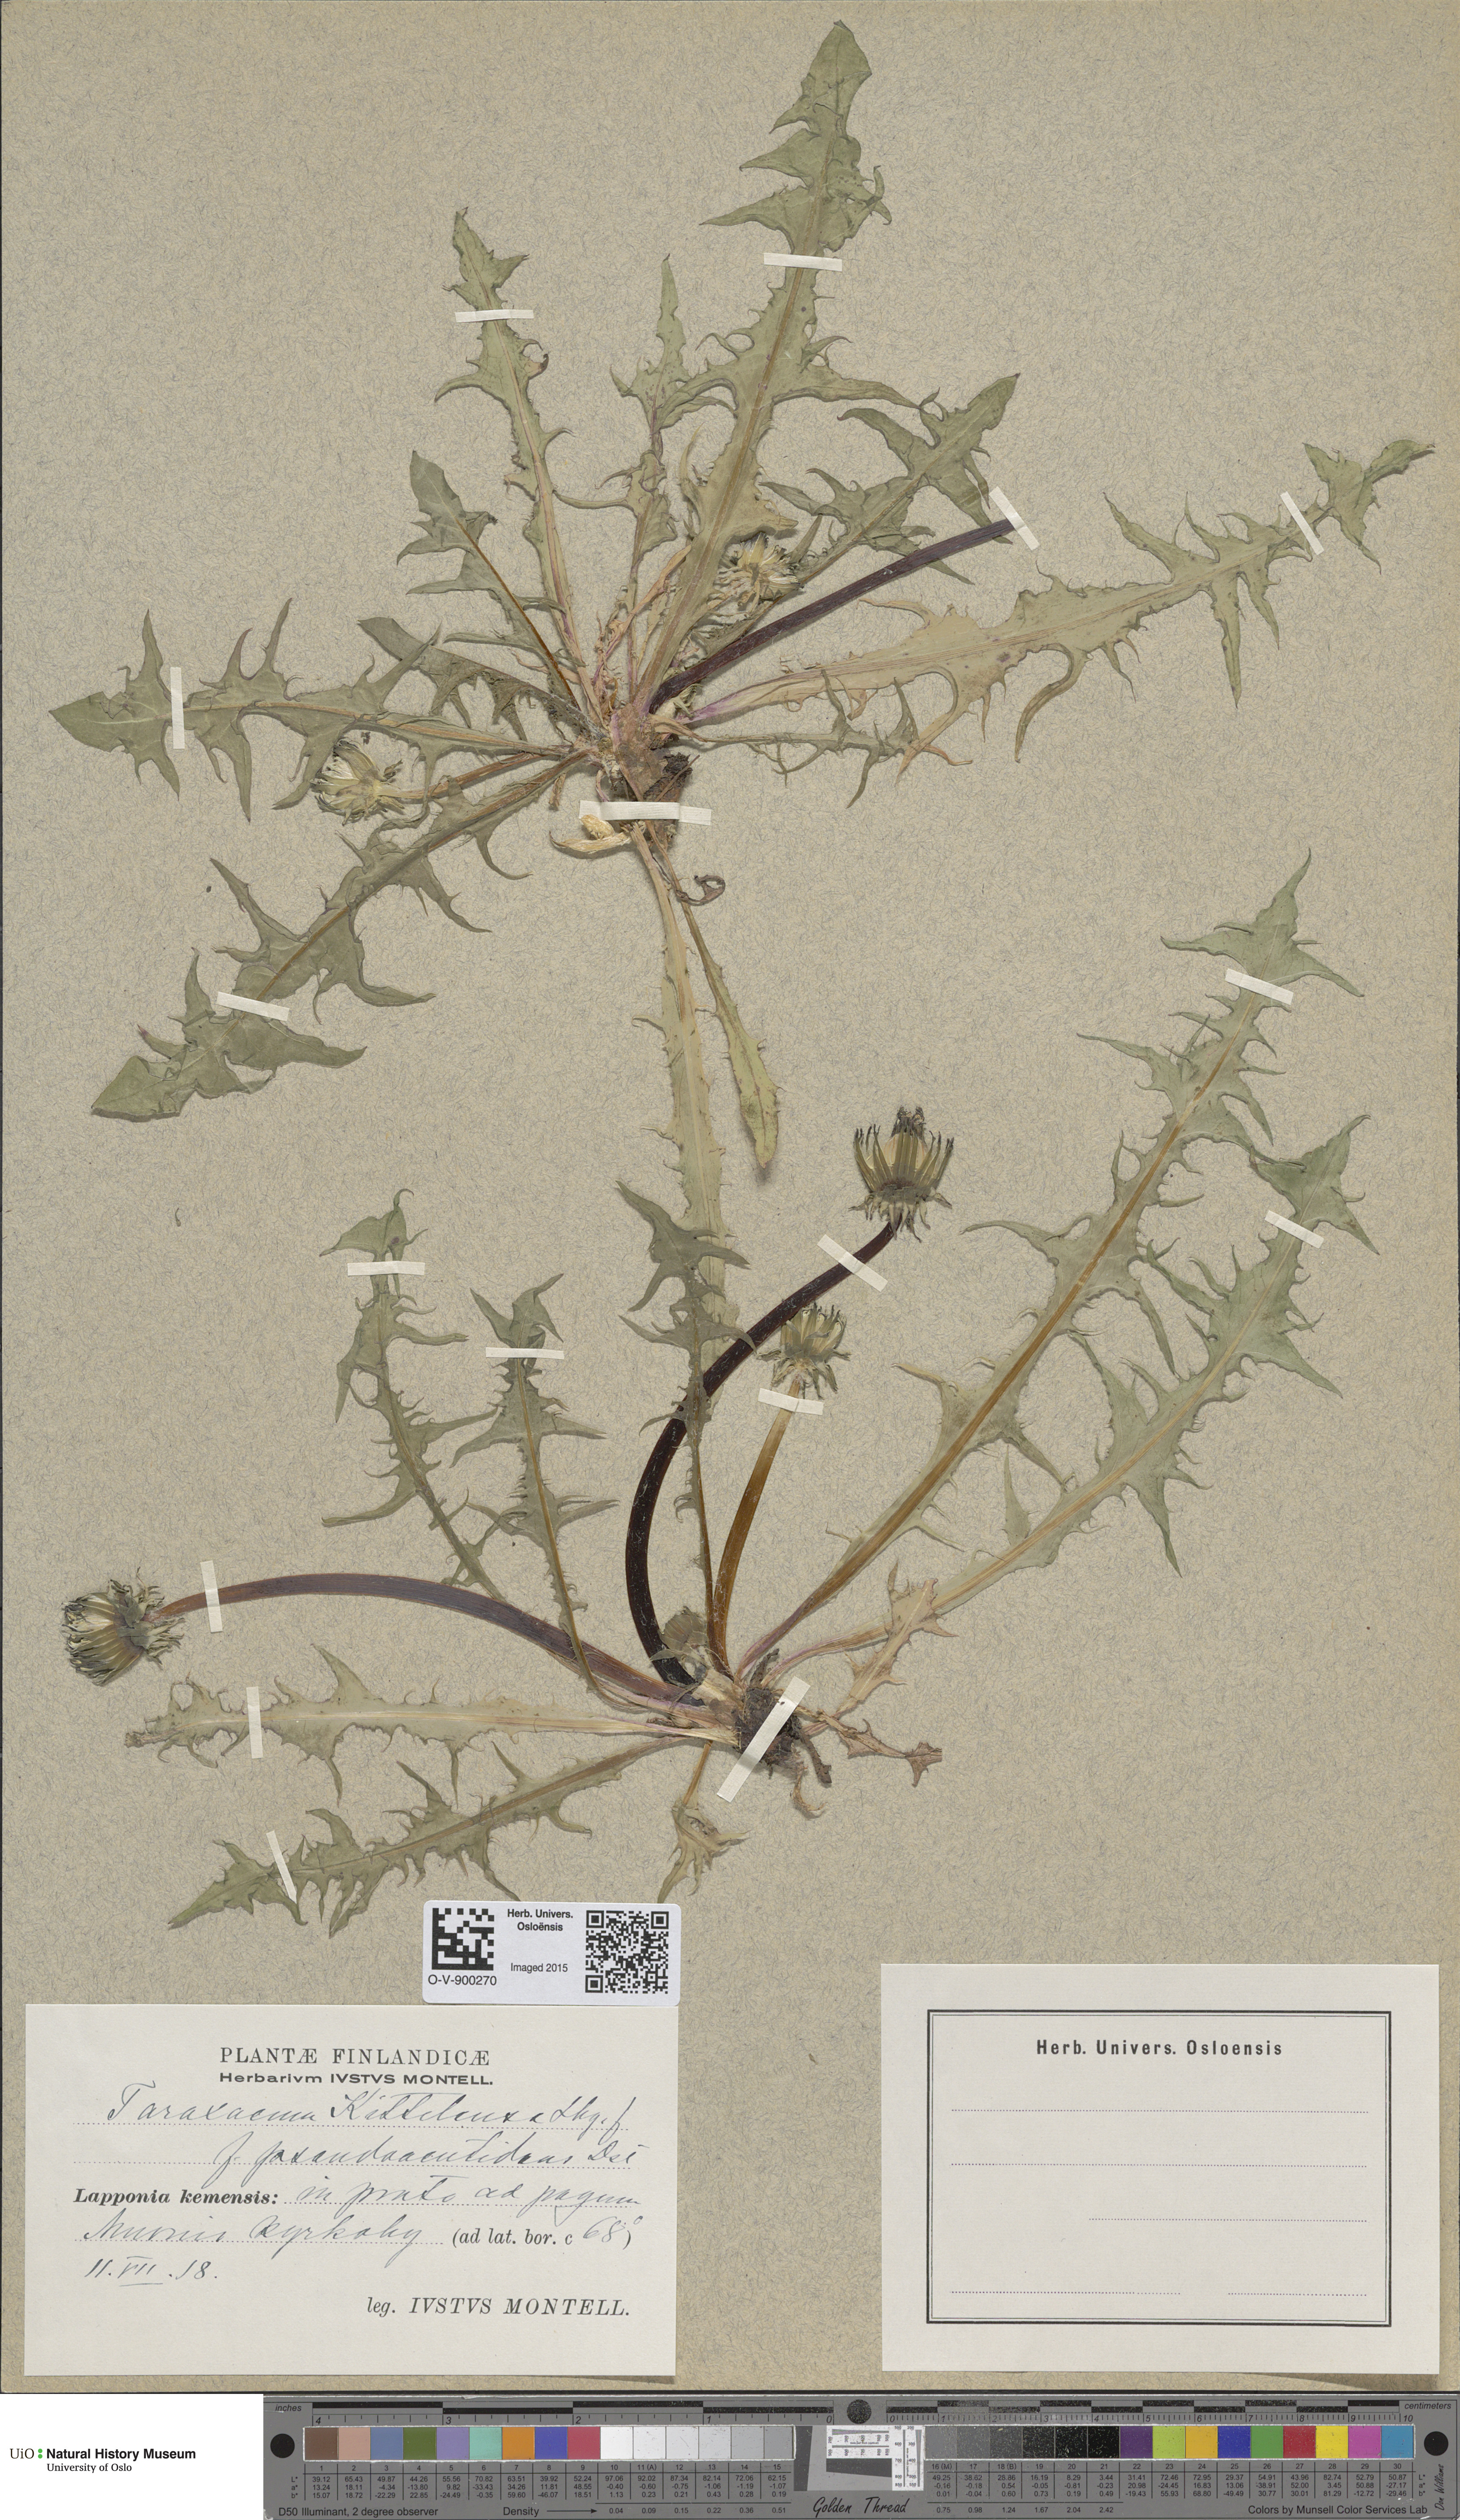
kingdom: Plantae
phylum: Tracheophyta
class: Magnoliopsida
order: Asterales
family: Asteraceae
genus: Taraxacum
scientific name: Taraxacum oxylobium
